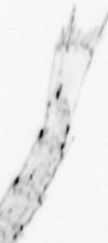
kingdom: Animalia
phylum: Arthropoda
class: Malacostraca
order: Decapoda
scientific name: Decapoda
